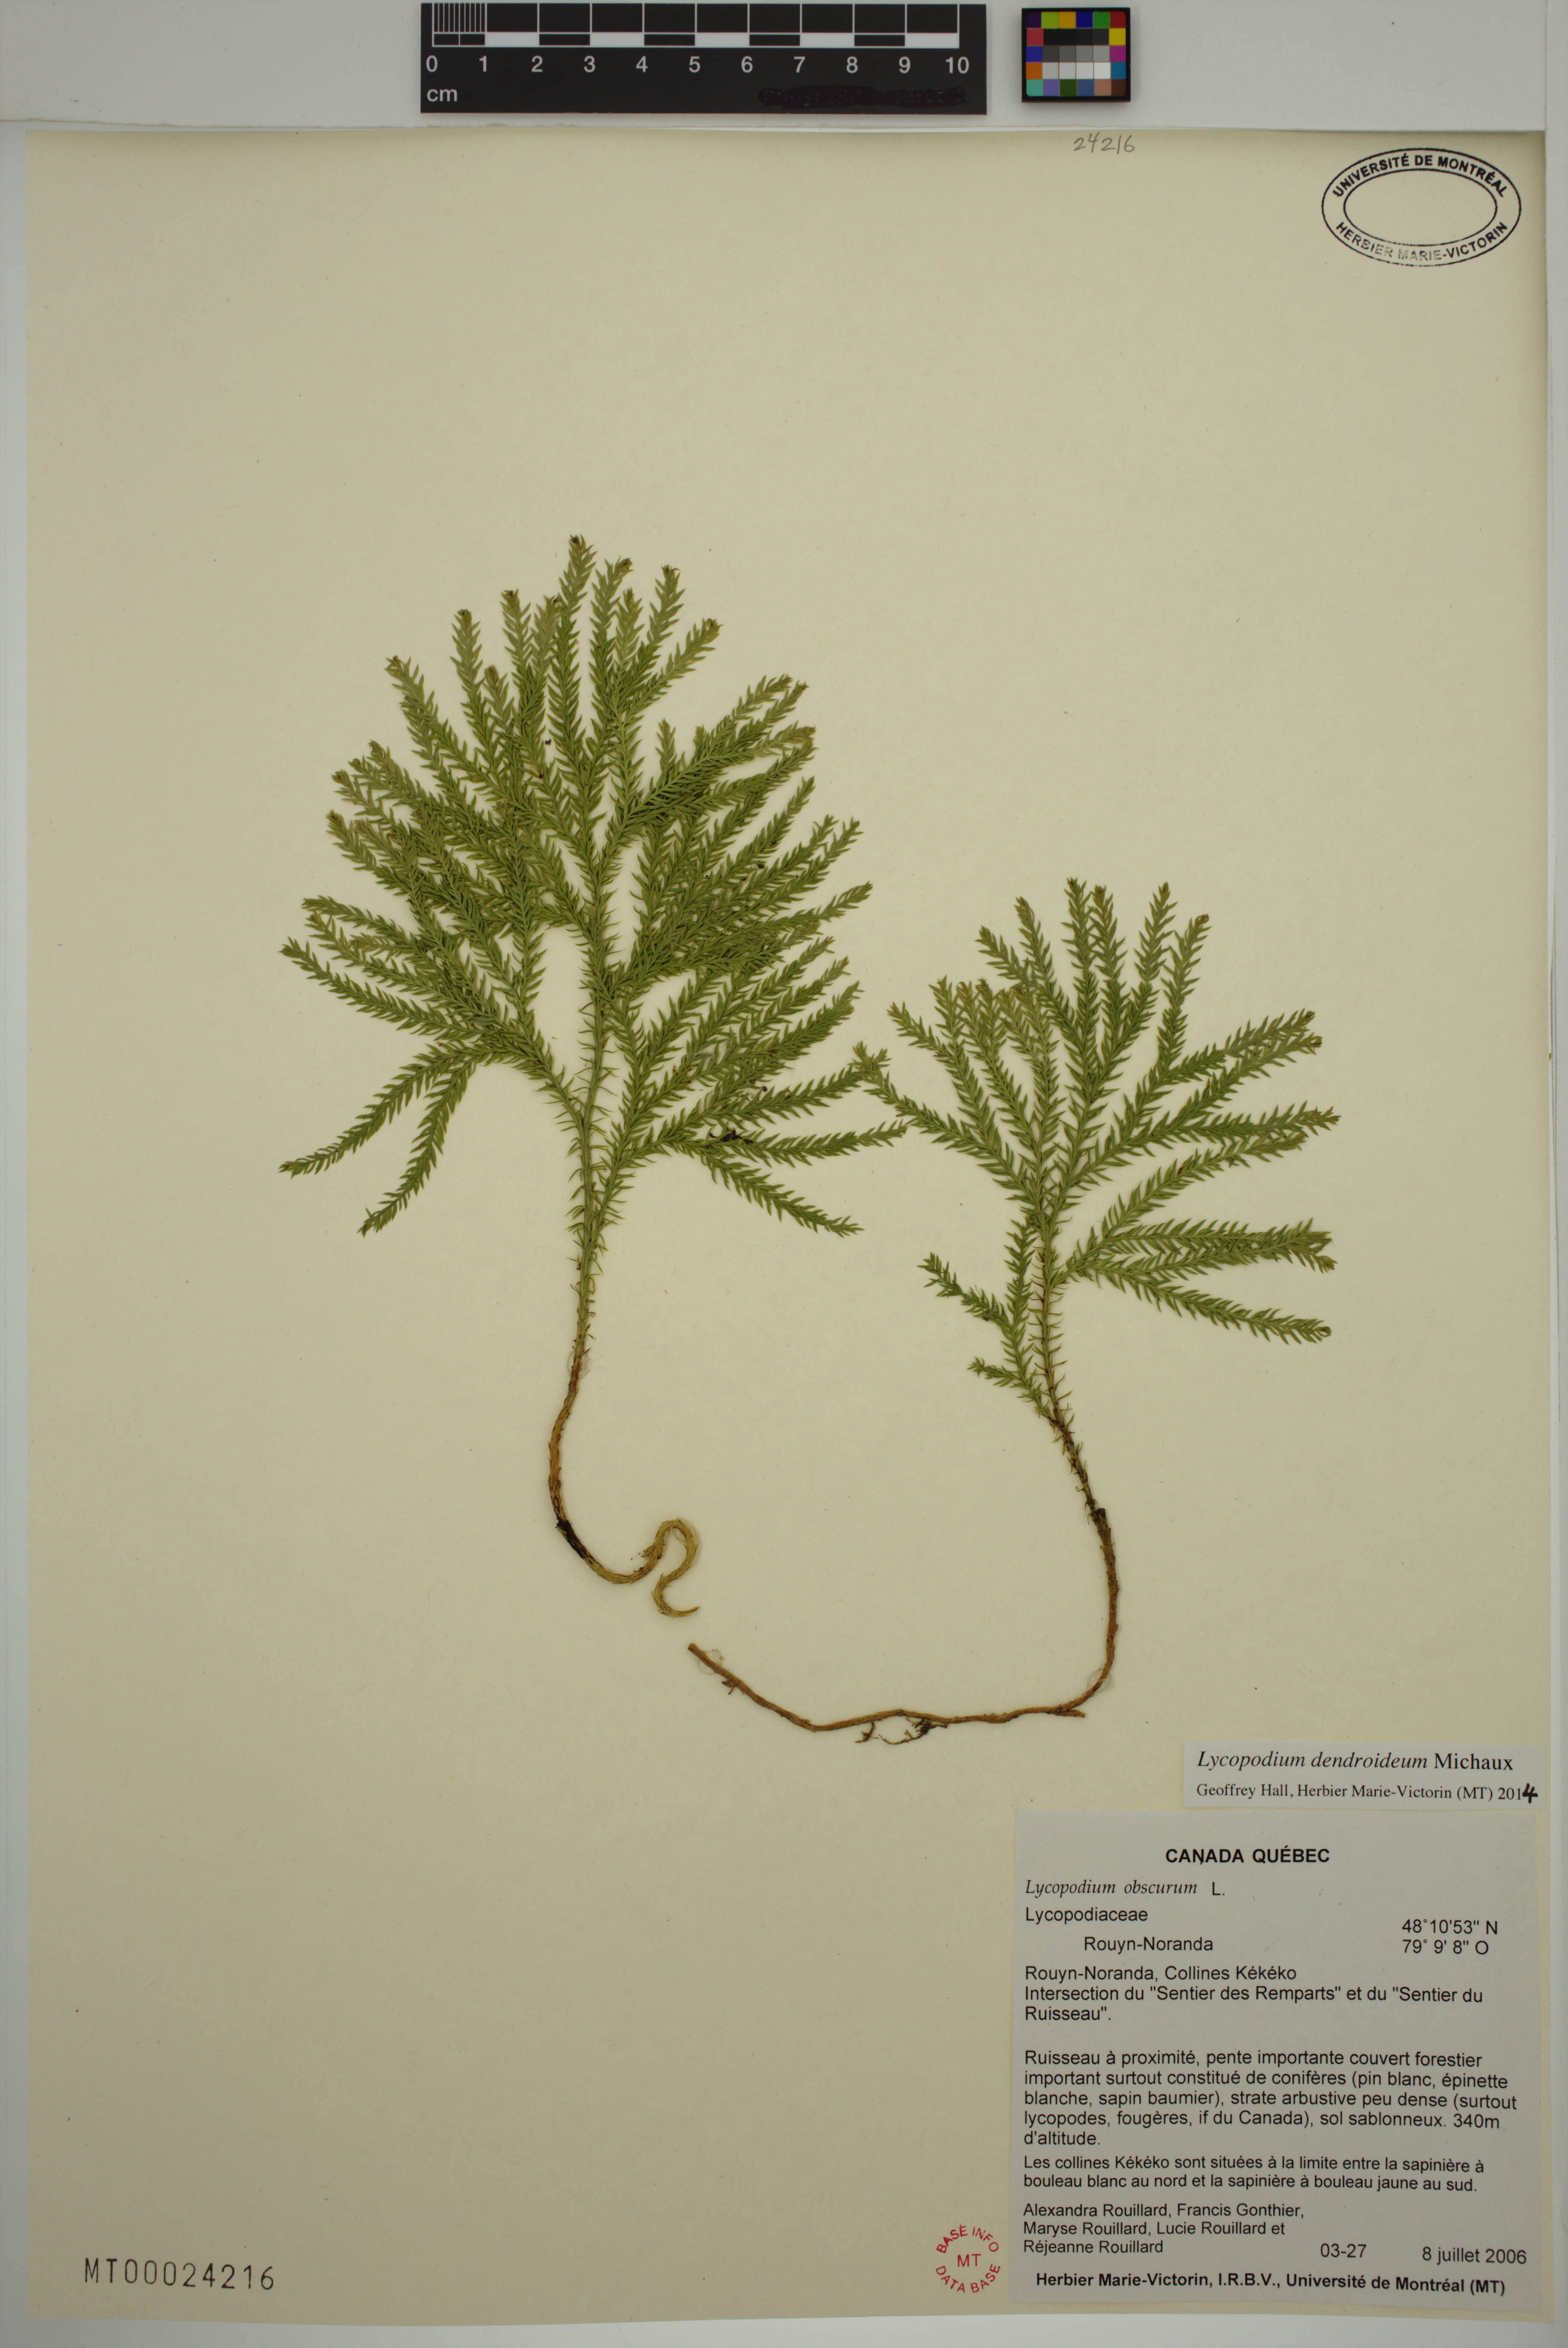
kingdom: Plantae
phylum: Tracheophyta
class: Lycopodiopsida
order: Lycopodiales
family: Lycopodiaceae
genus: Dendrolycopodium
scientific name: Dendrolycopodium dendroideum
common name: Northern tree-clubmoss
